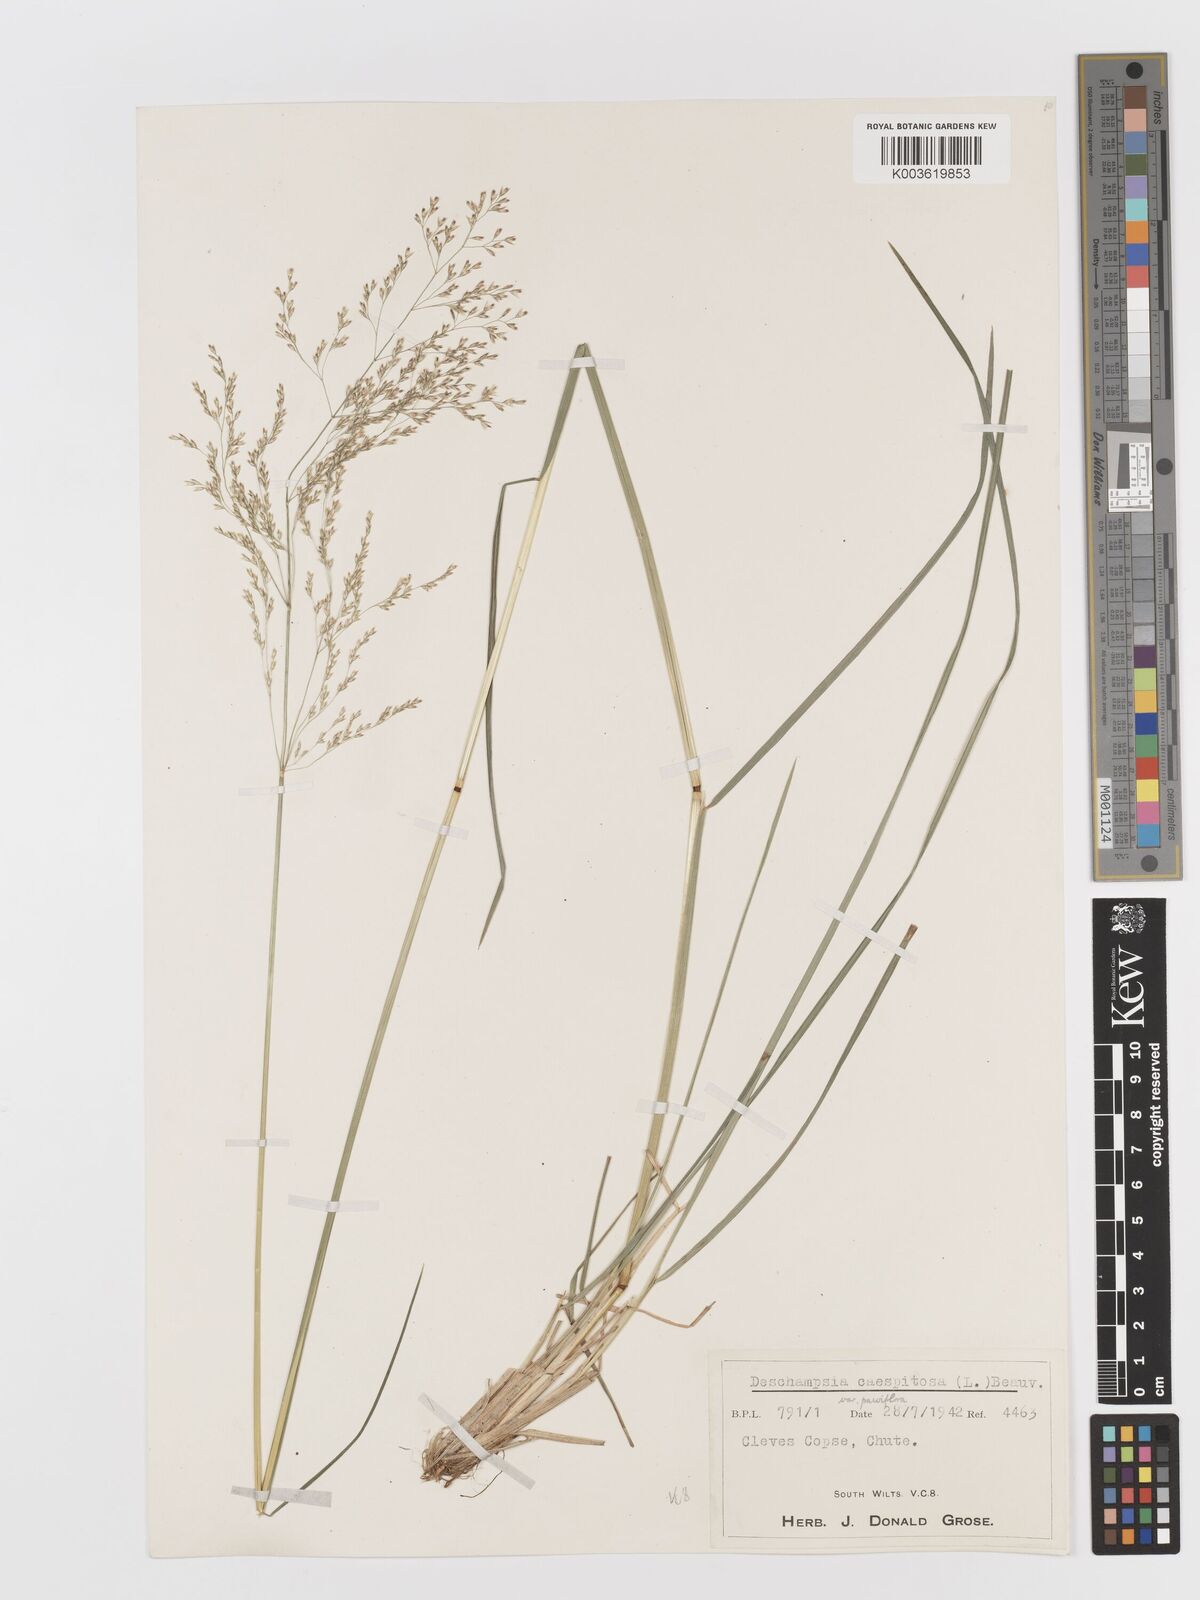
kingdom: Plantae
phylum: Tracheophyta
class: Liliopsida
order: Poales
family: Poaceae
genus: Deschampsia
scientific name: Deschampsia cespitosa
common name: Tufted hair-grass
